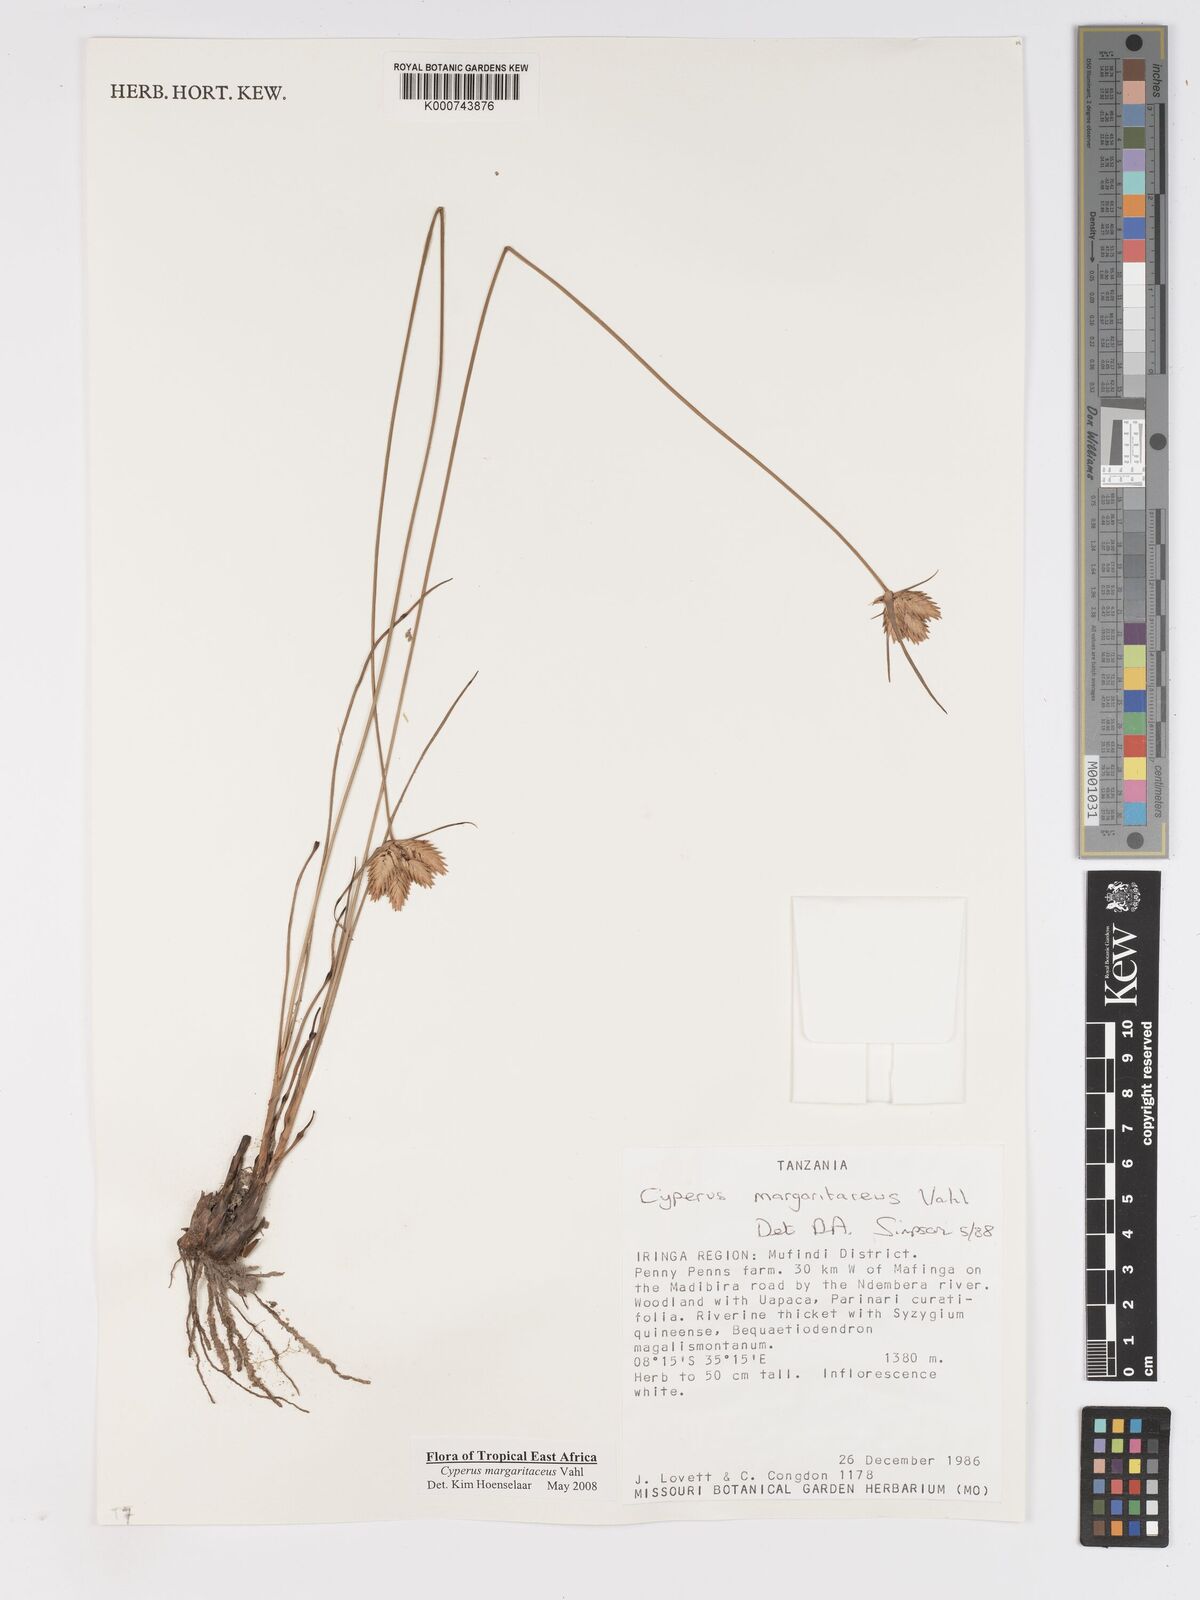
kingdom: Plantae
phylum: Tracheophyta
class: Liliopsida
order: Poales
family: Cyperaceae
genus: Cyperus
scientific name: Cyperus margaritaceus
